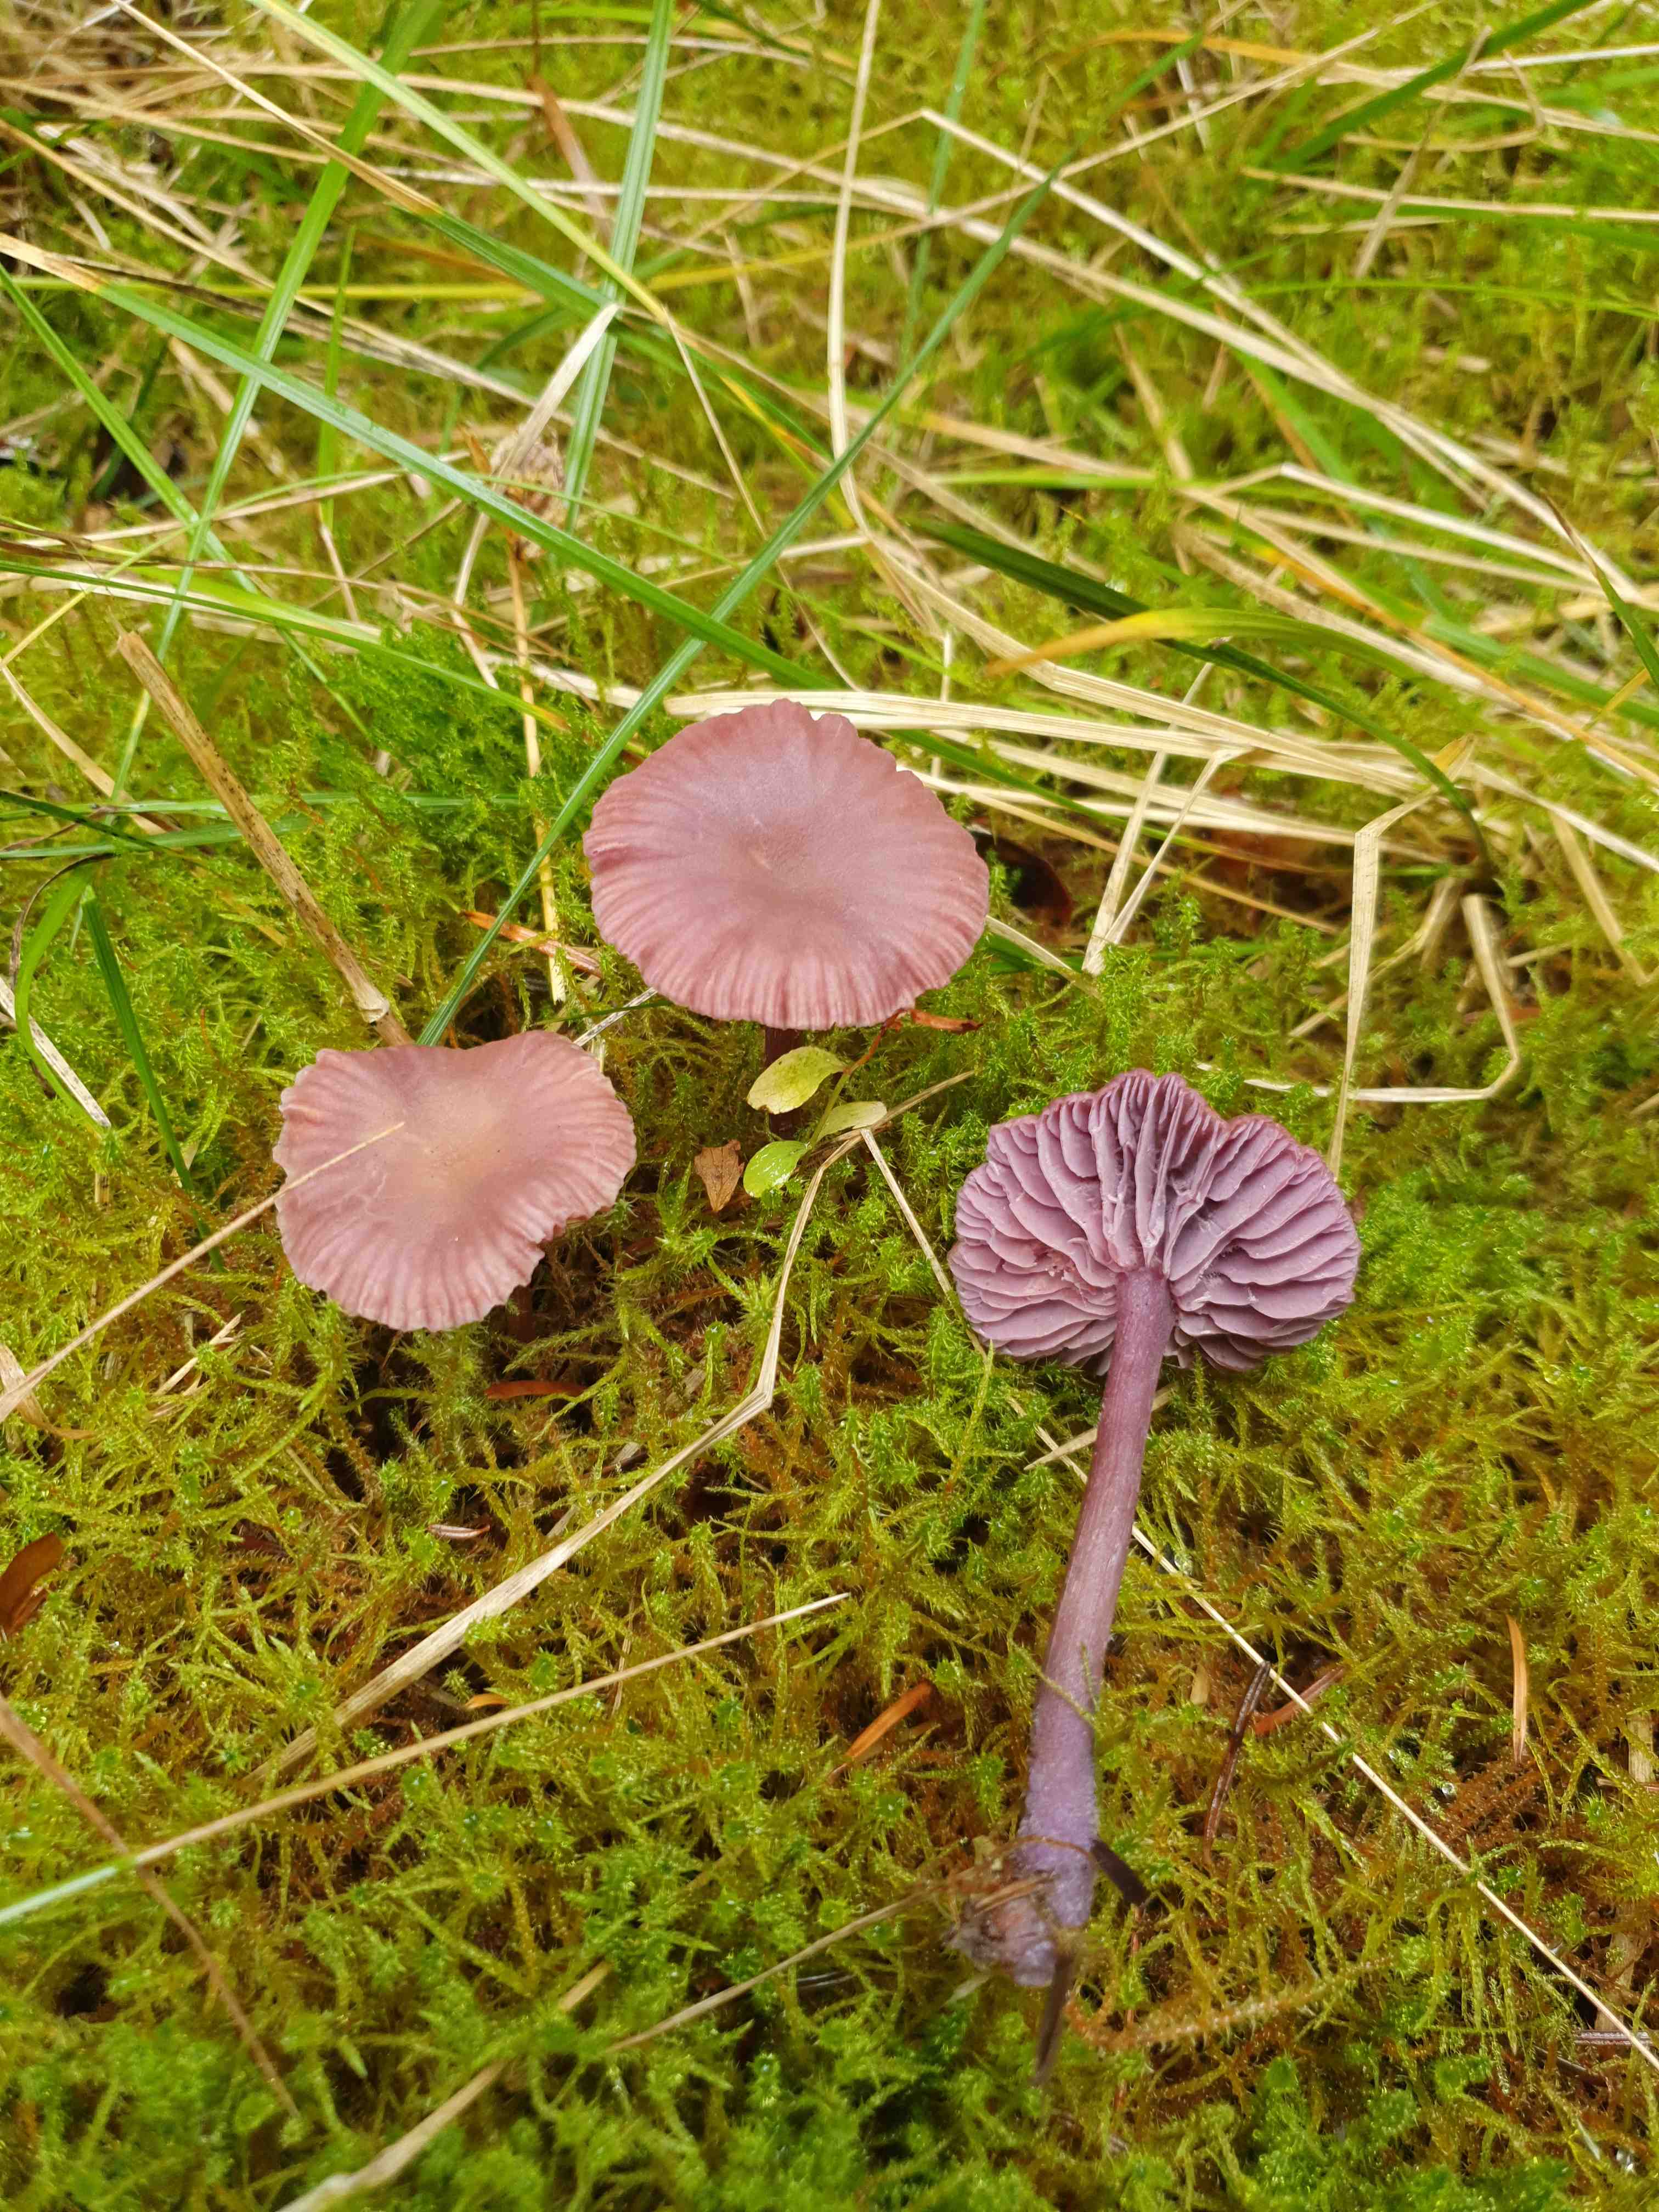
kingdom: Fungi
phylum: Basidiomycota
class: Agaricomycetes
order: Agaricales
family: Hydnangiaceae
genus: Laccaria
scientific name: Laccaria amethystina
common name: violet ametysthat
